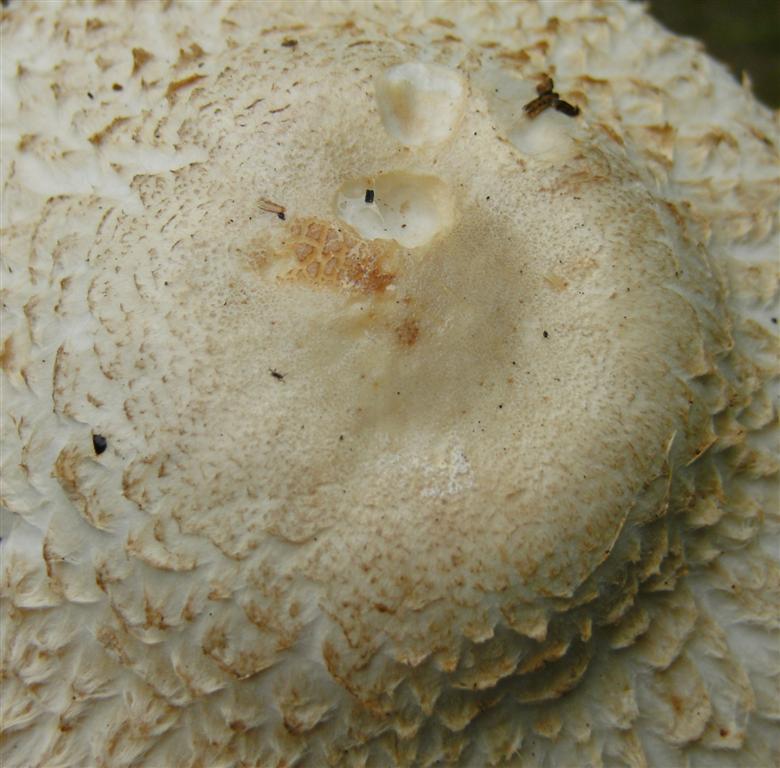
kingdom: Fungi
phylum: Basidiomycota
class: Agaricomycetes
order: Agaricales
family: Agaricaceae
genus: Leucoagaricus
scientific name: Leucoagaricus nympharum
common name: gran-silkehat
